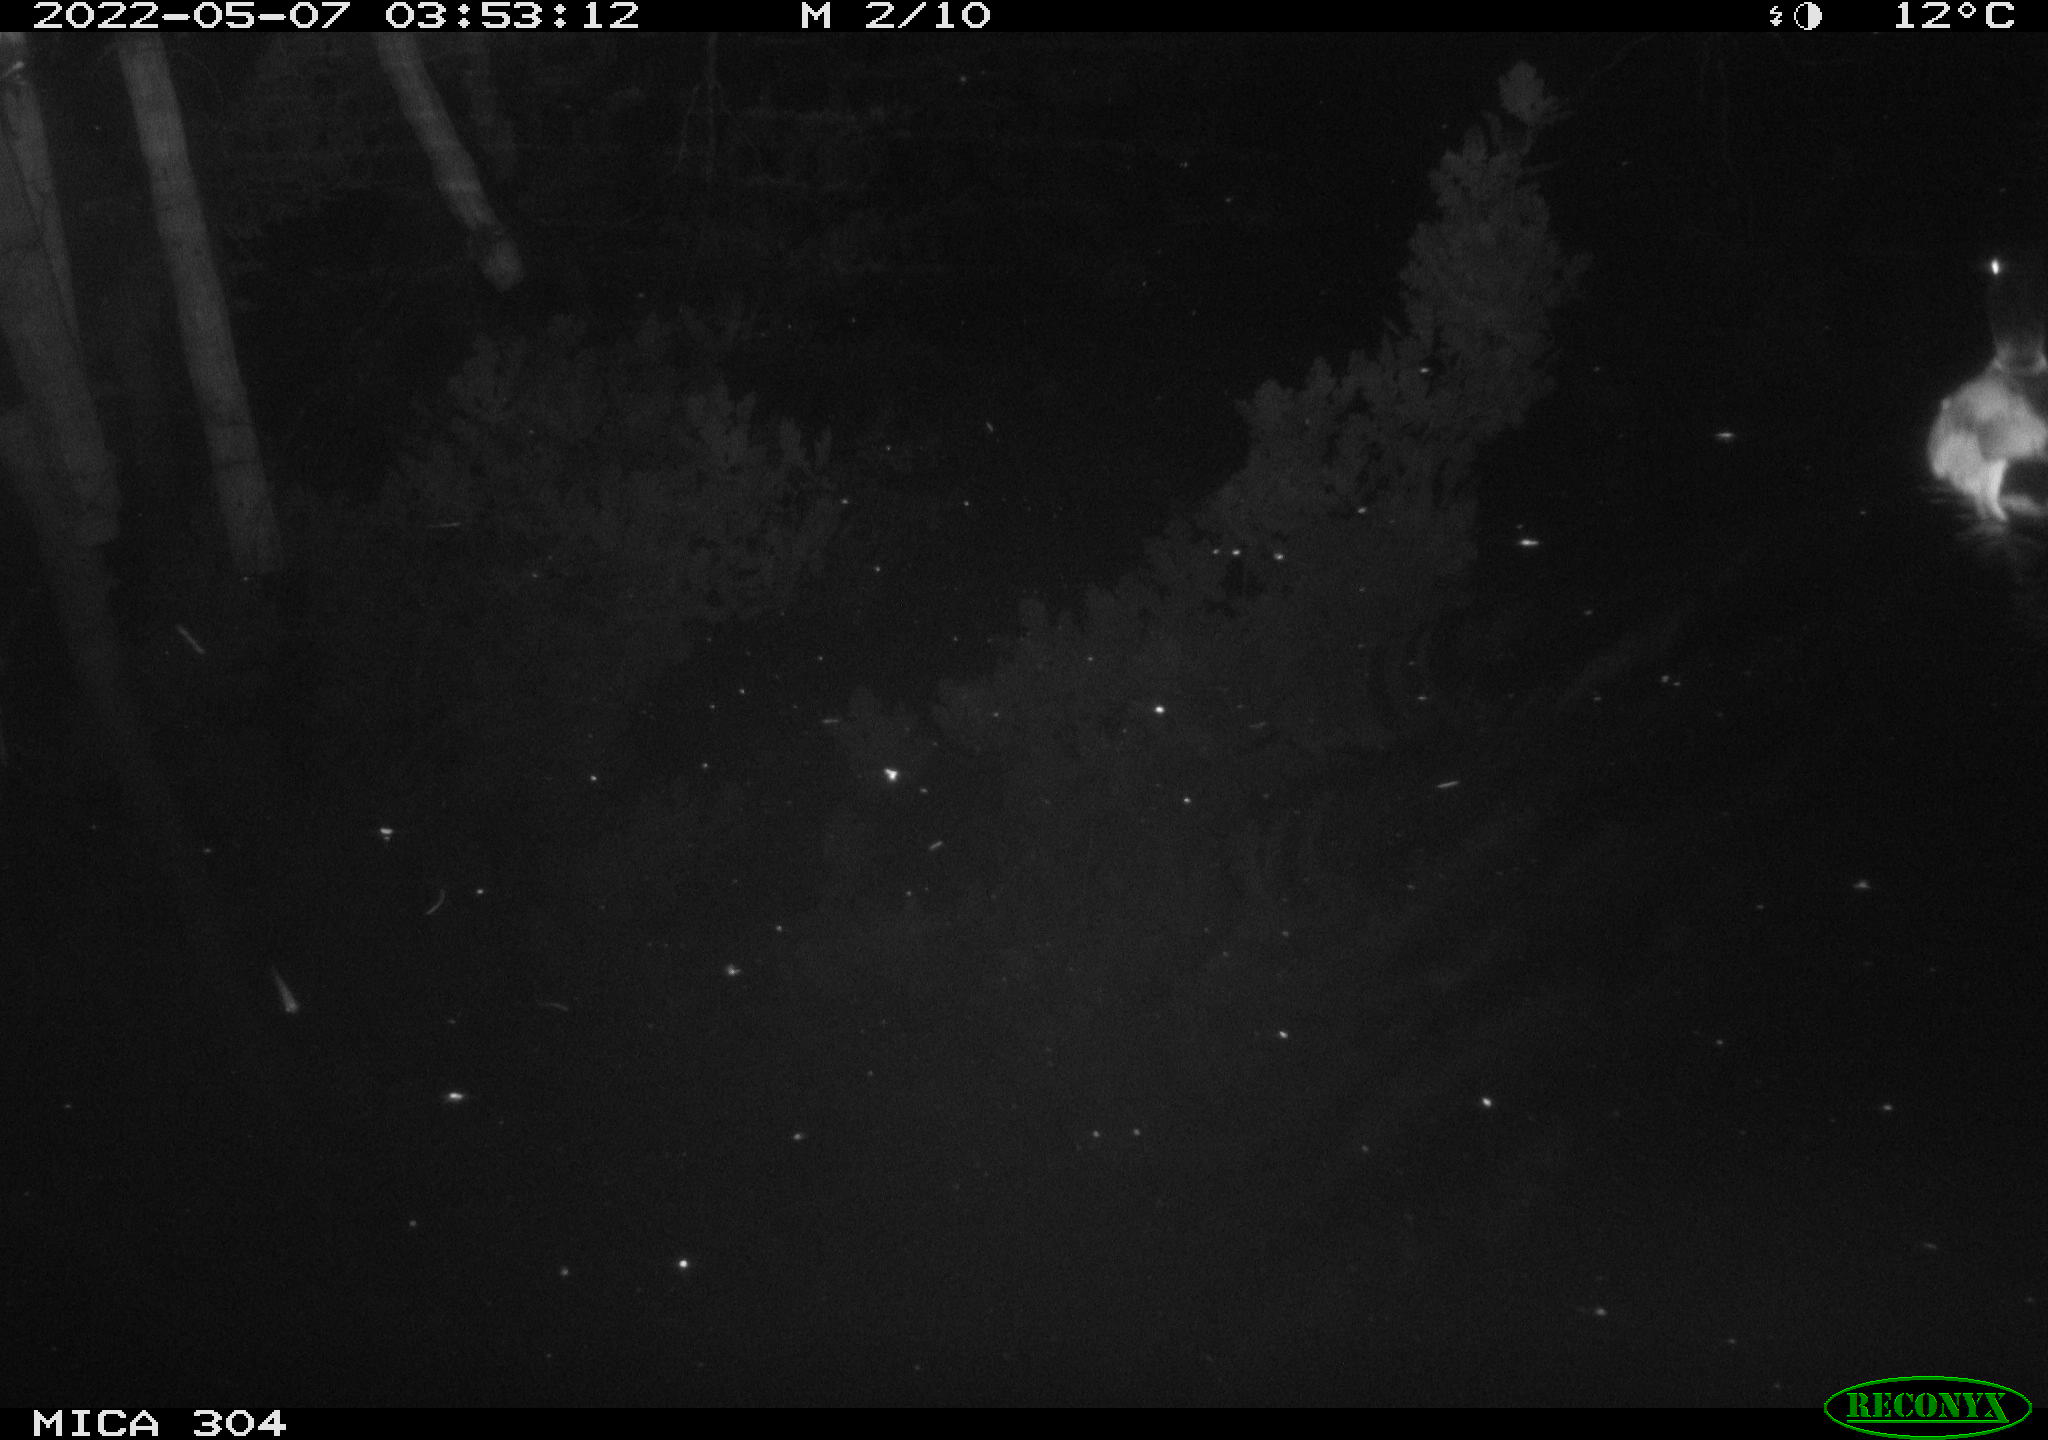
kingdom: Animalia
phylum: Chordata
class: Aves
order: Anseriformes
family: Anatidae
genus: Anas
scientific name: Anas platyrhynchos
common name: Mallard
